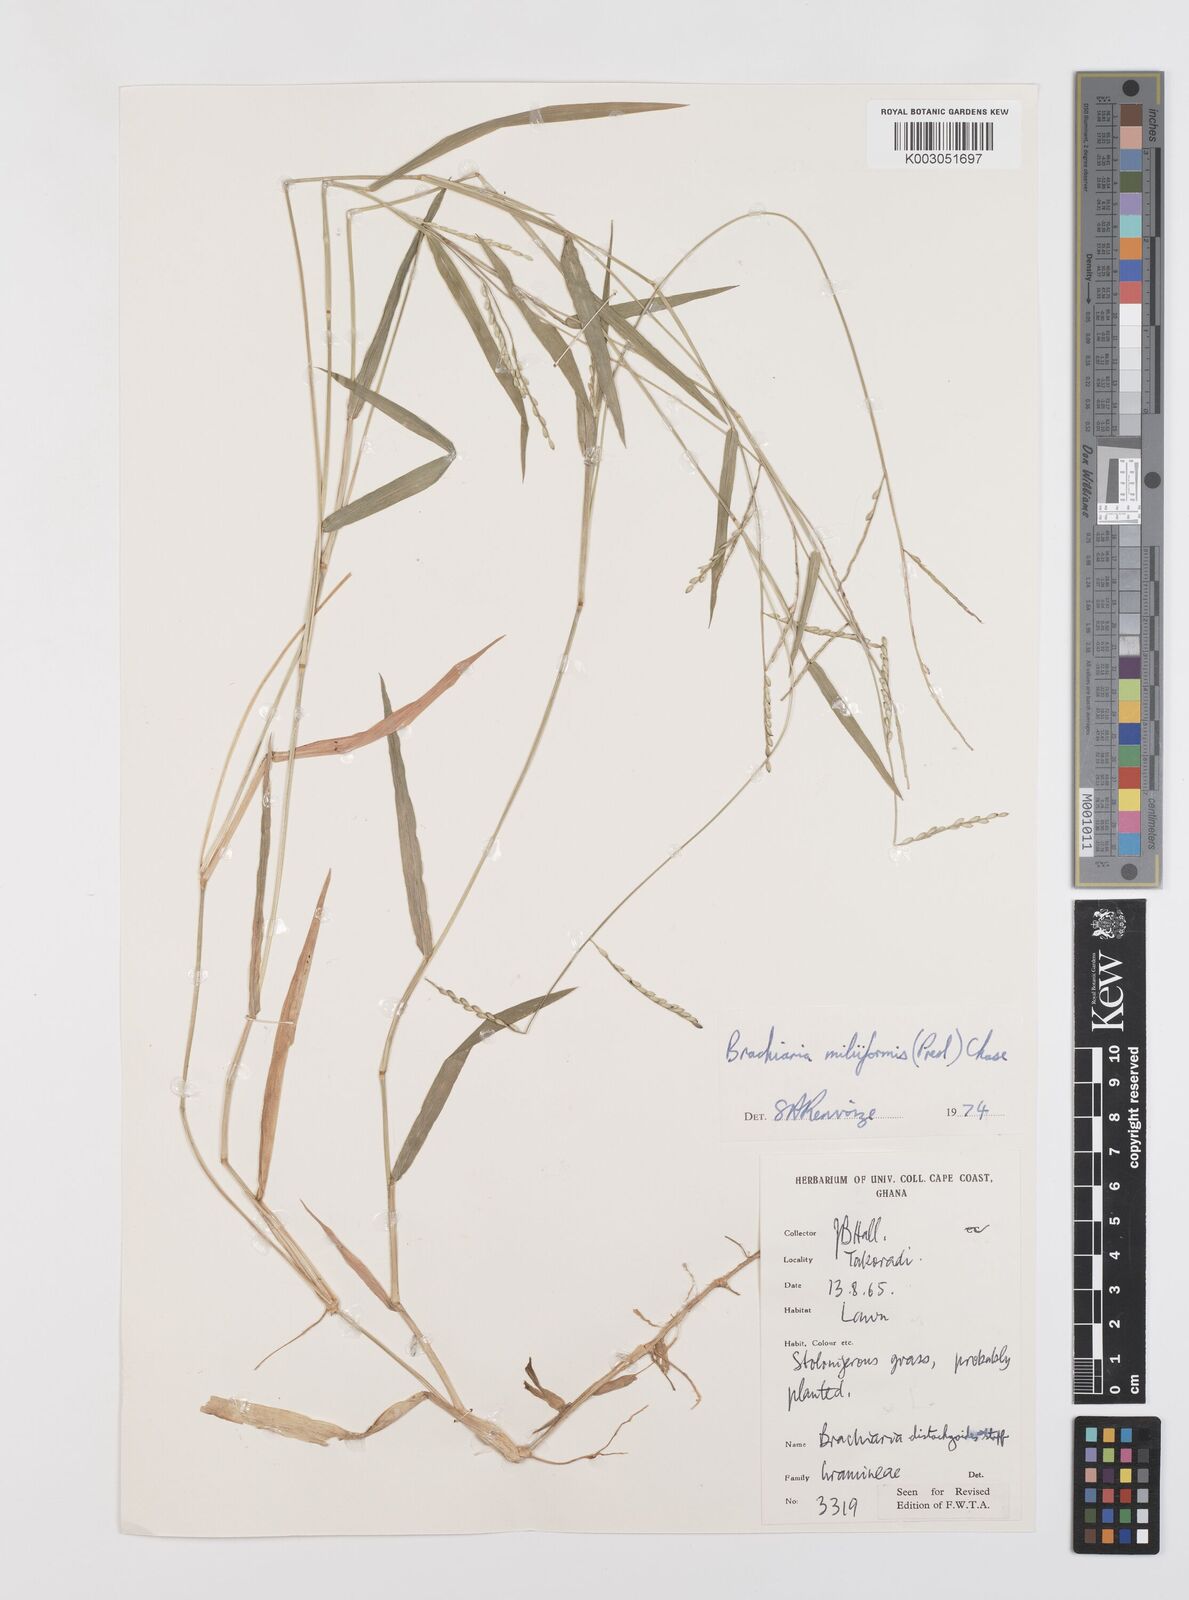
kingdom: Plantae
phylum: Tracheophyta
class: Liliopsida
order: Poales
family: Poaceae
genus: Urochloa
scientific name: Urochloa subquadripara
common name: Armgrass millet
